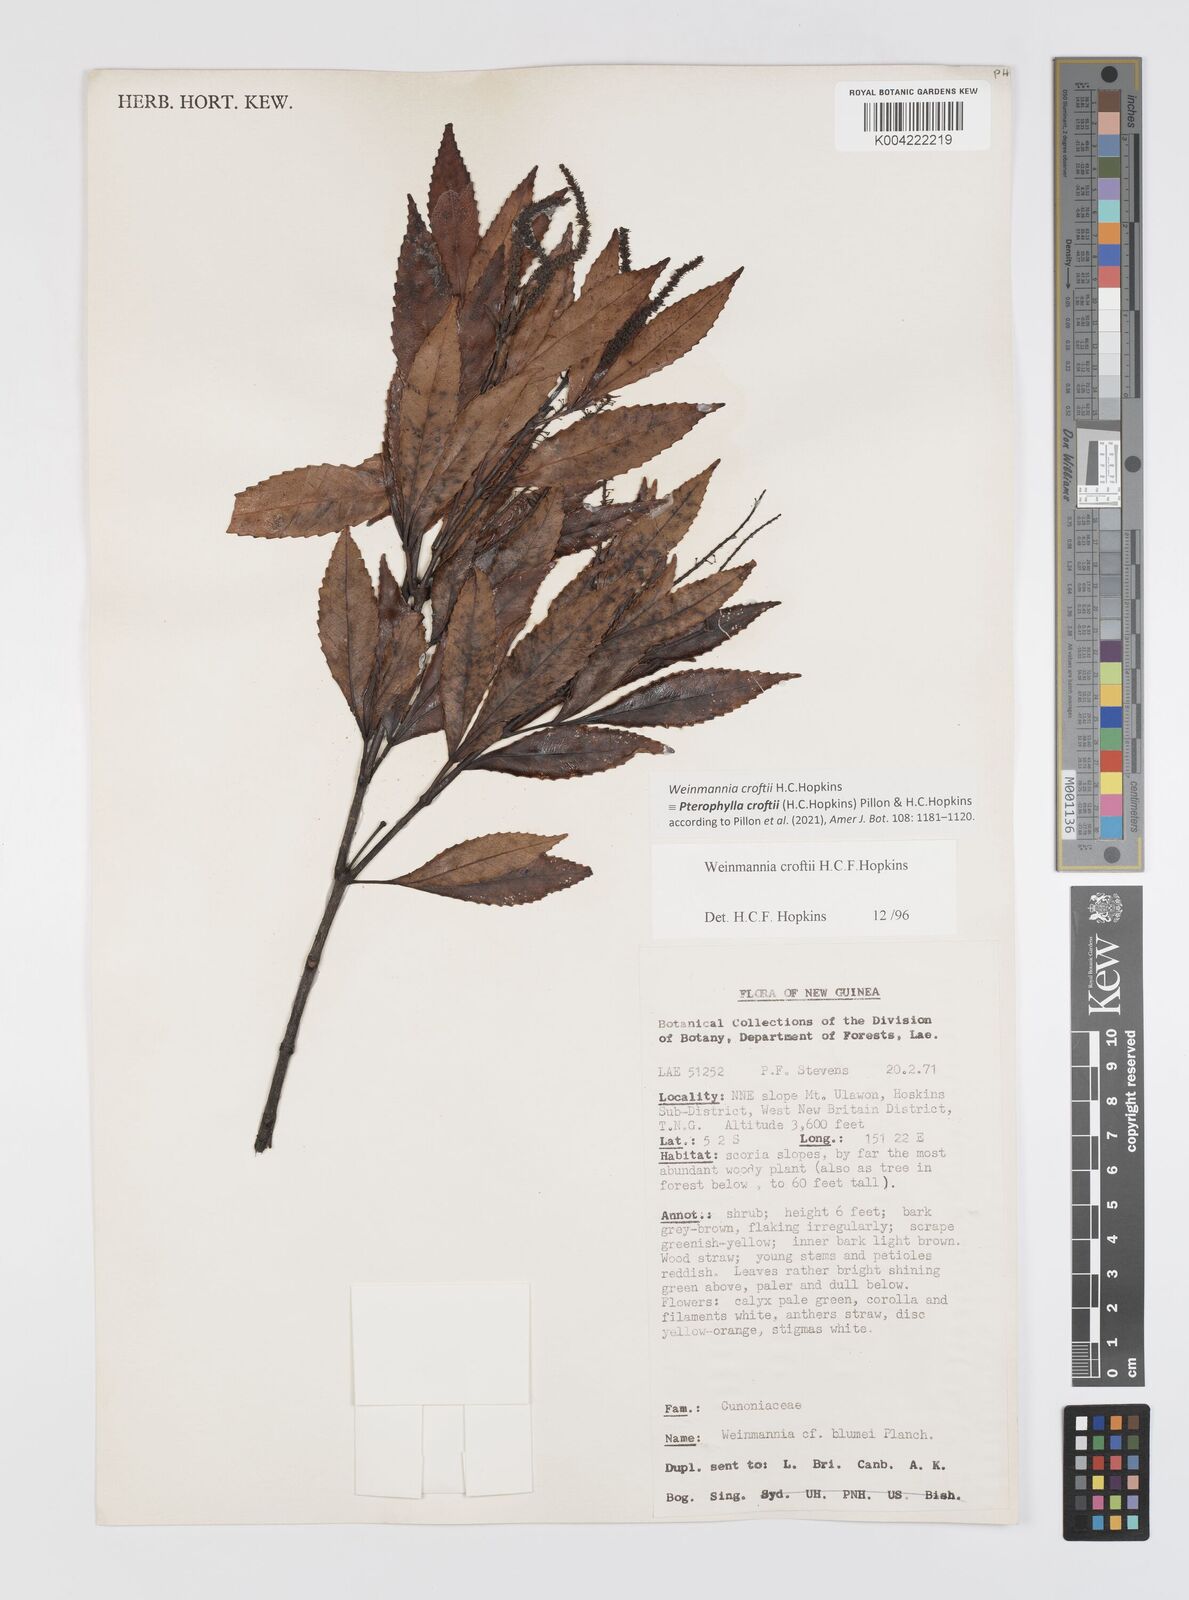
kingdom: Plantae
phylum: Tracheophyta
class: Magnoliopsida
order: Oxalidales
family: Cunoniaceae
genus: Pterophylla
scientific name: Pterophylla croftii
